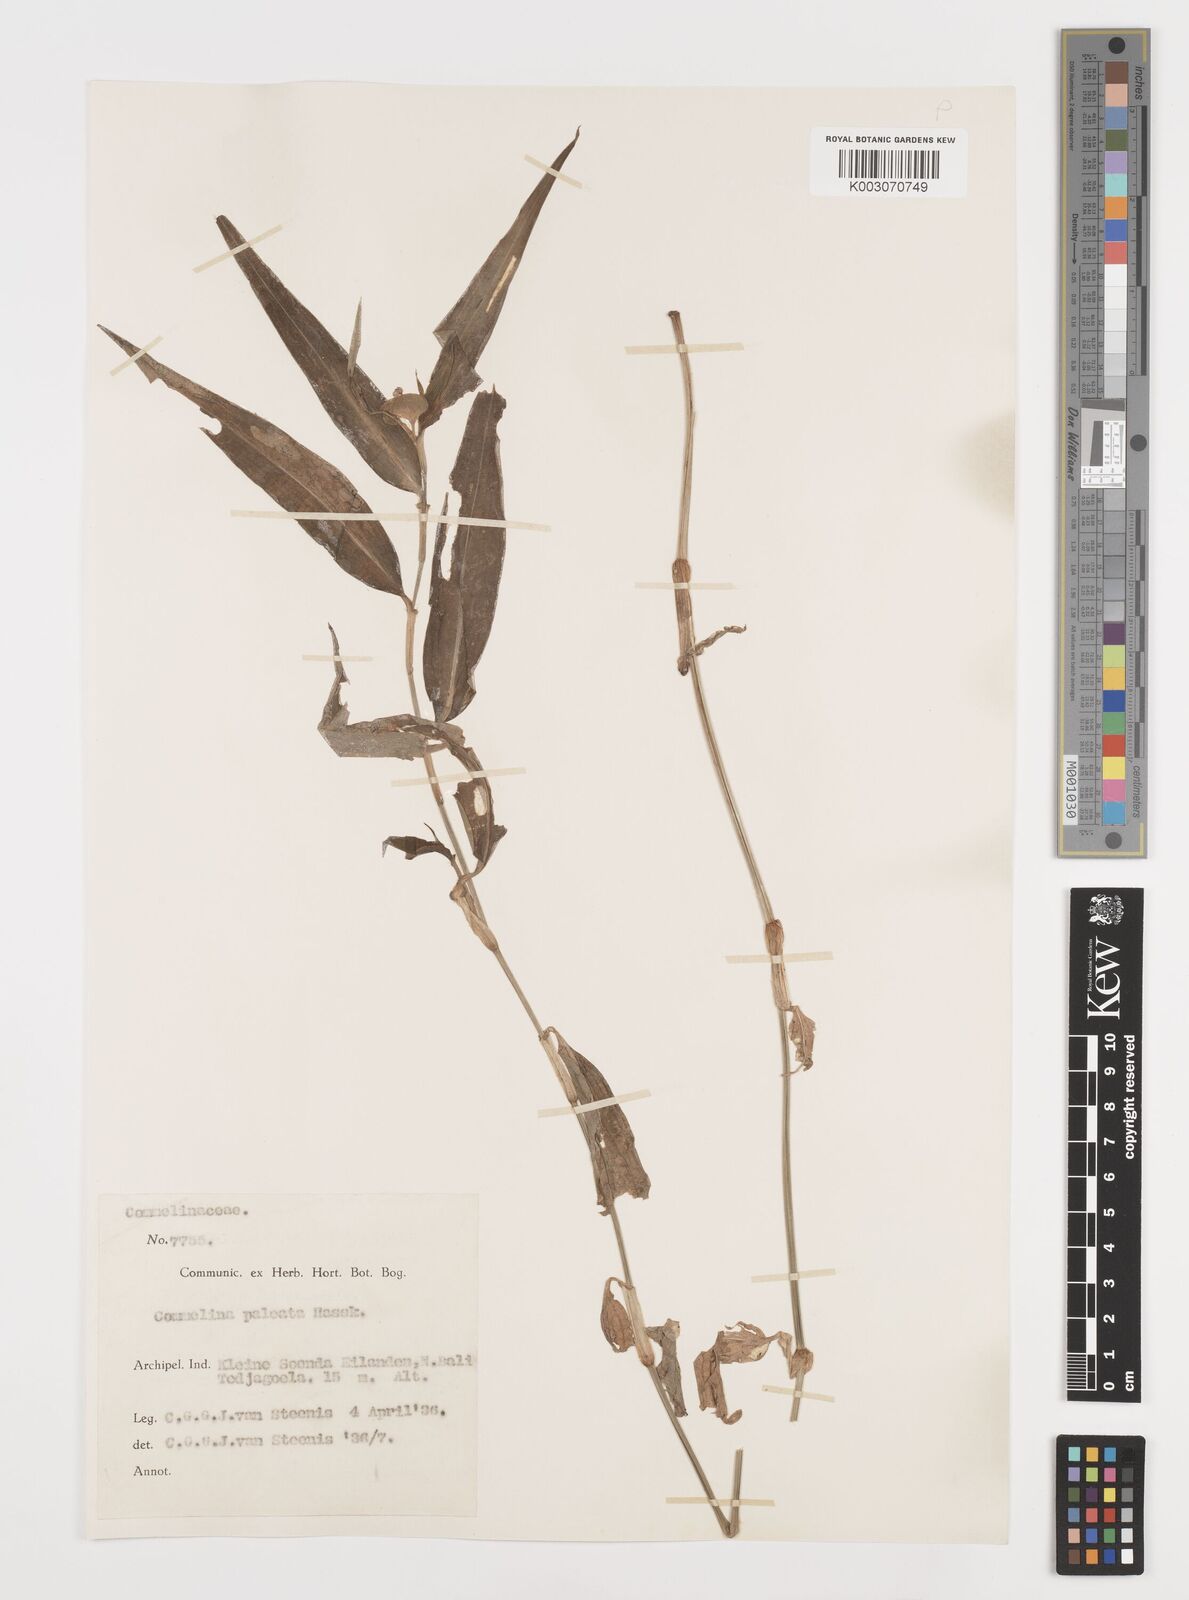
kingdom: Plantae
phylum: Tracheophyta
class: Liliopsida
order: Commelinales
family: Commelinaceae
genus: Commelina
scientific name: Commelina paleata
